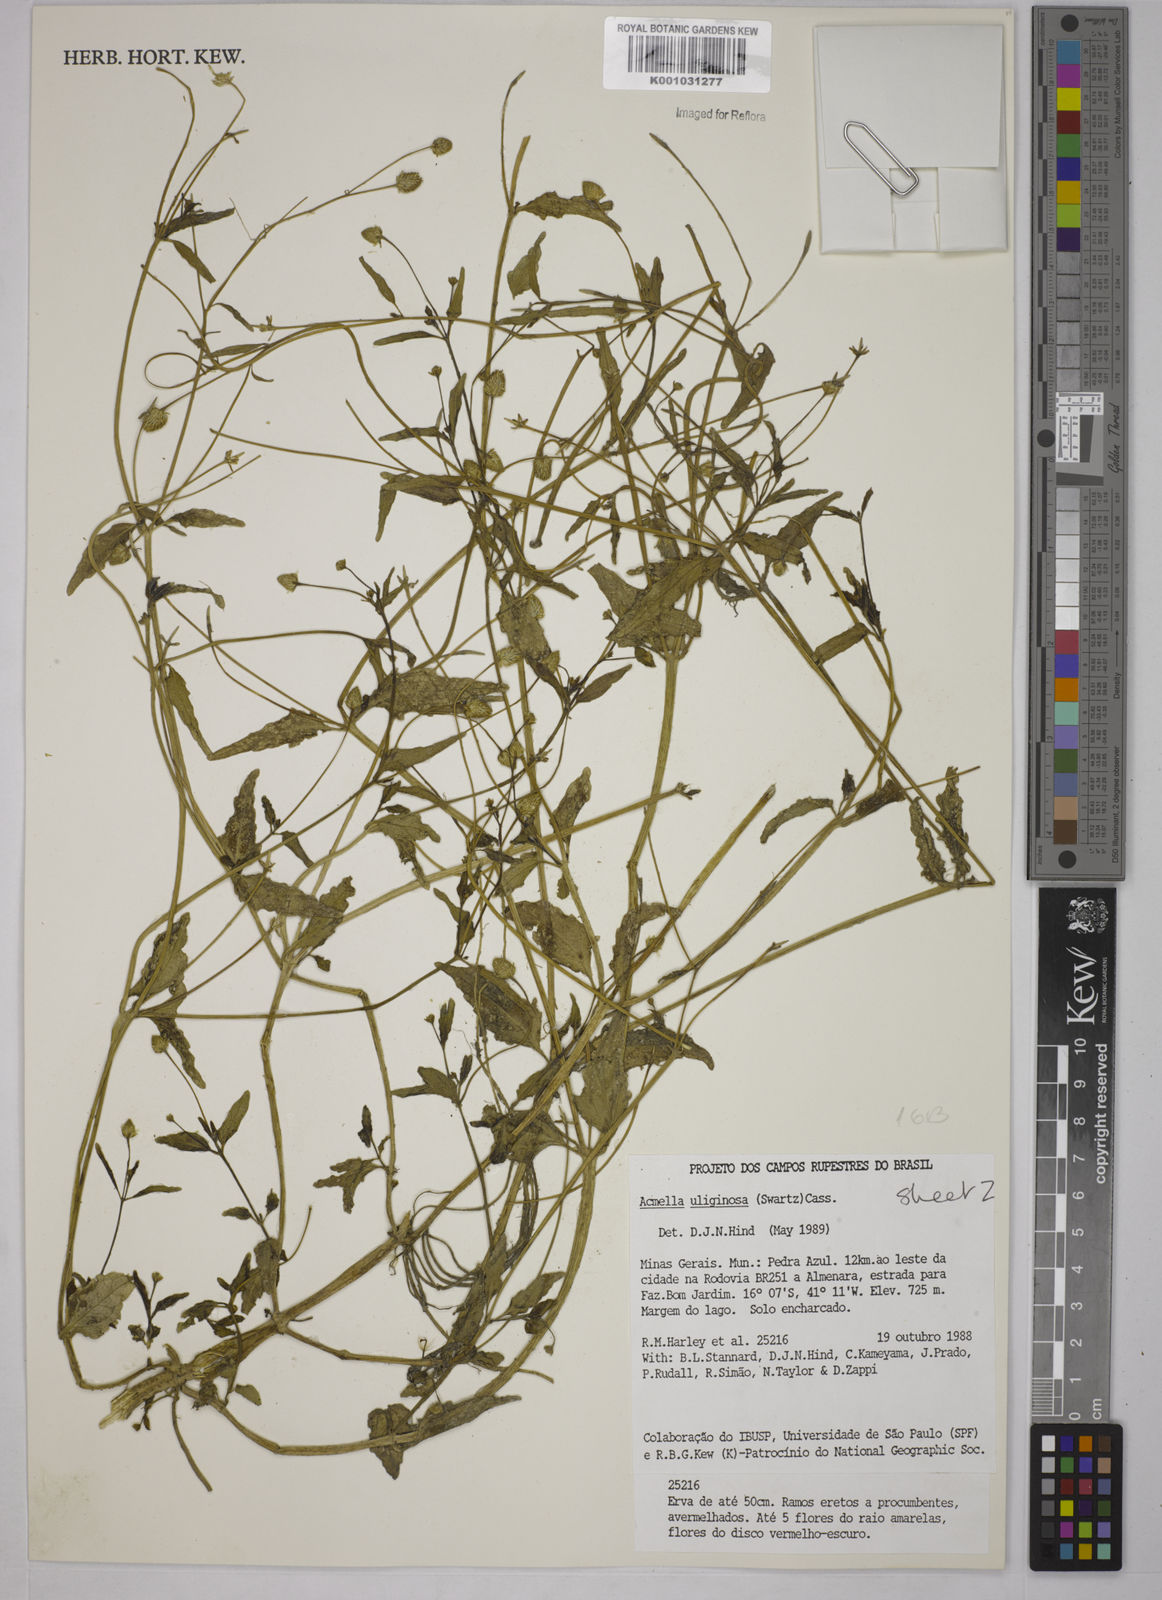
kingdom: Plantae
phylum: Tracheophyta
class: Magnoliopsida
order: Asterales
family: Asteraceae
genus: Acmella
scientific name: Acmella uliginosa
